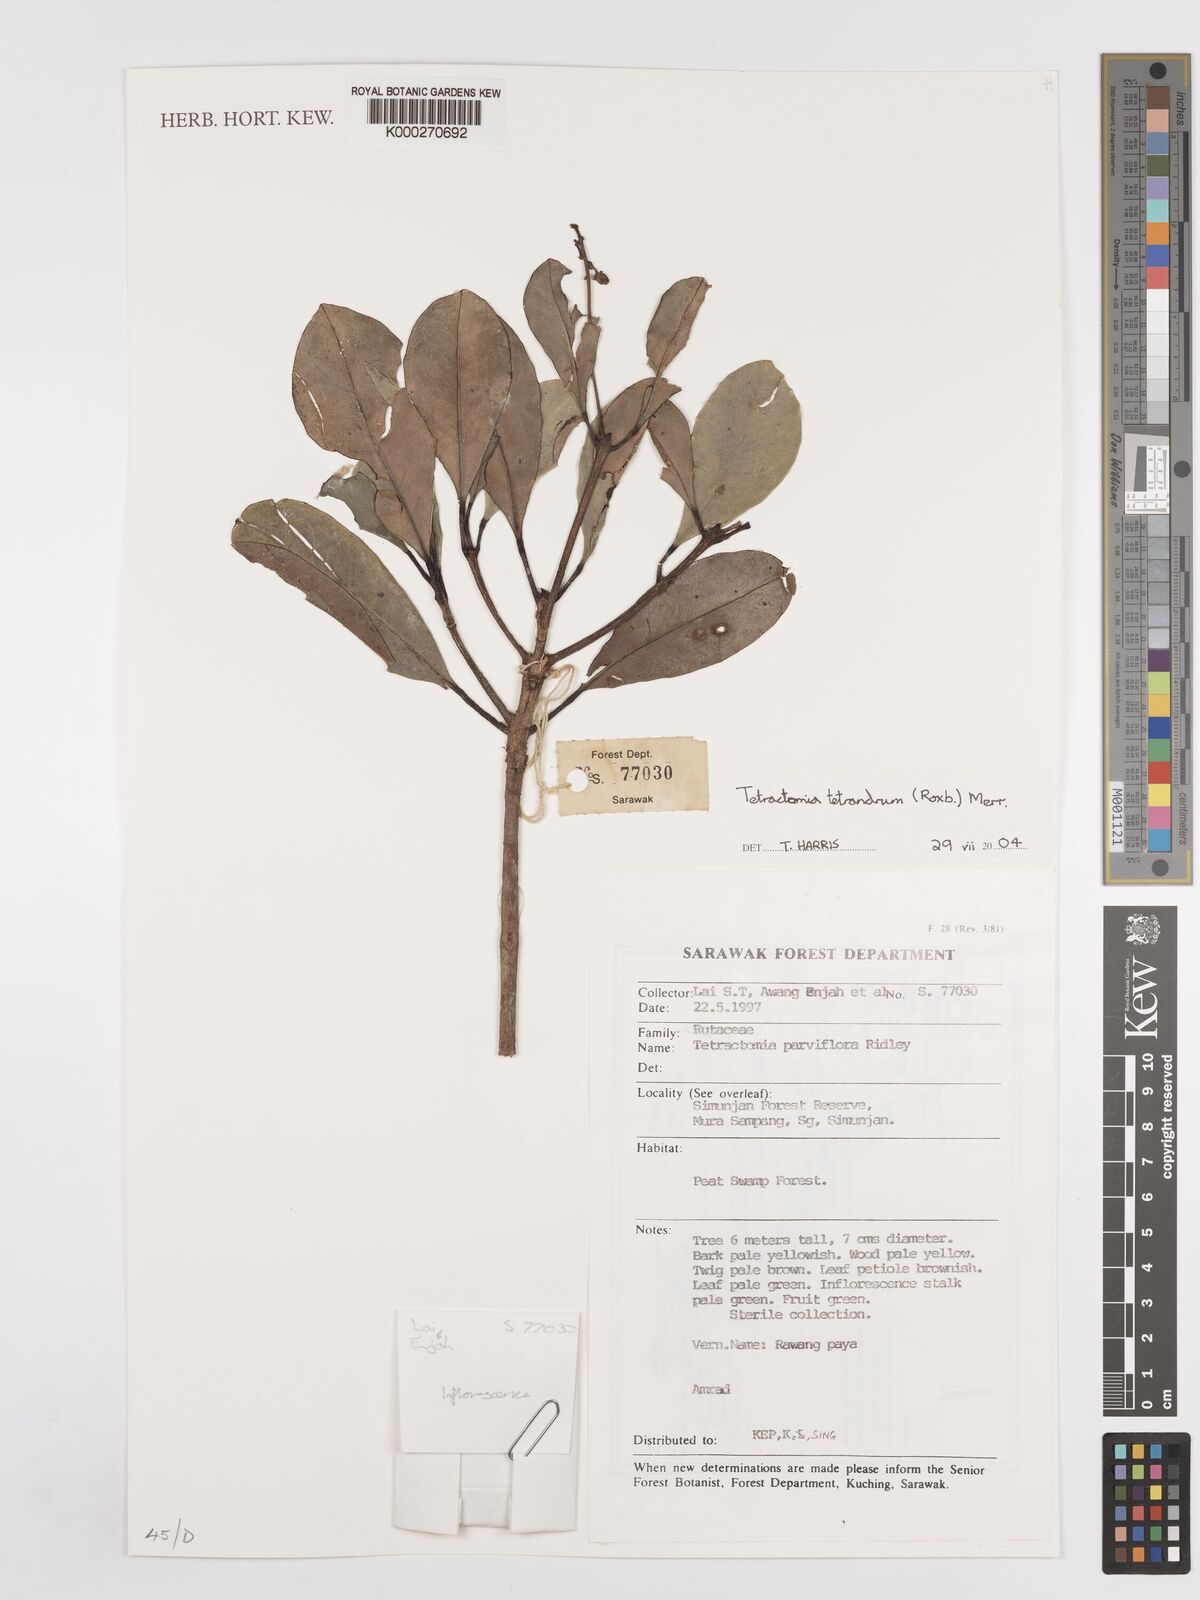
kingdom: Plantae
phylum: Tracheophyta
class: Magnoliopsida
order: Sapindales
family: Rutaceae
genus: Tetractomia
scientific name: Tetractomia tetrandra
